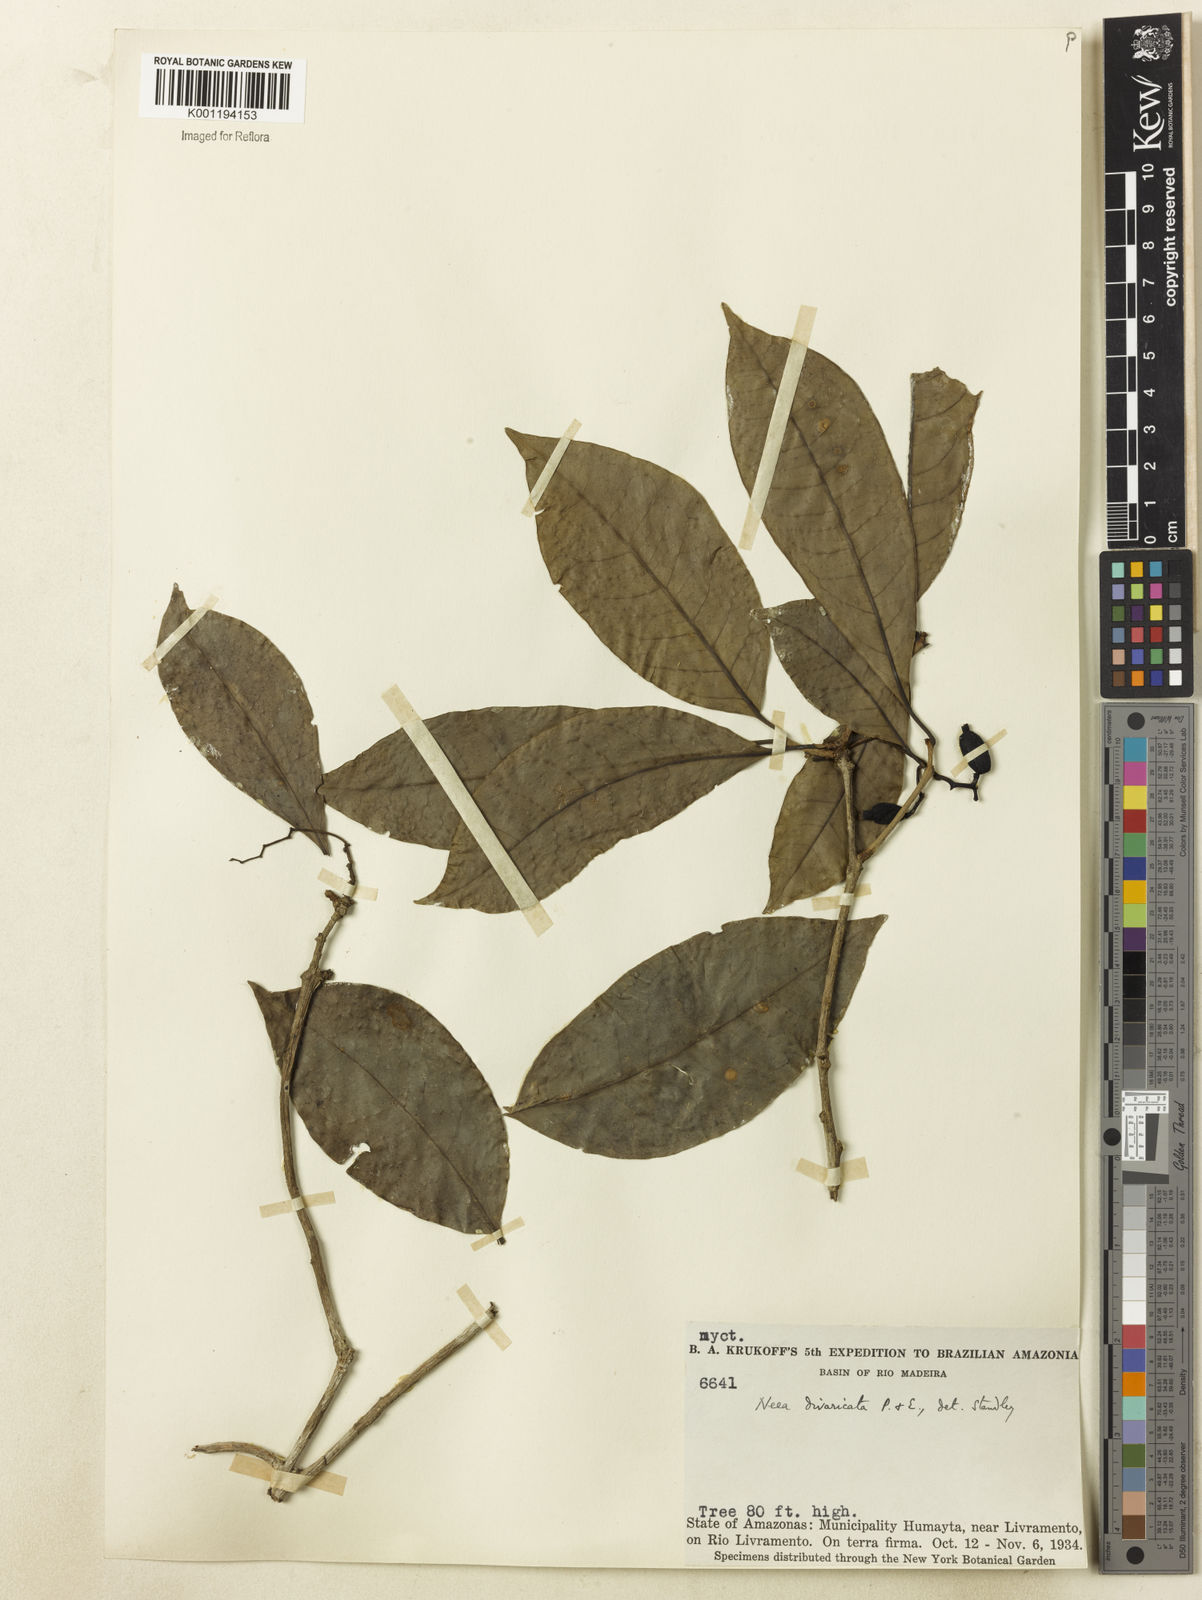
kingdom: Plantae
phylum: Tracheophyta
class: Magnoliopsida
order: Caryophyllales
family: Nyctaginaceae
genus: Neea
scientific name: Neea divaricata
